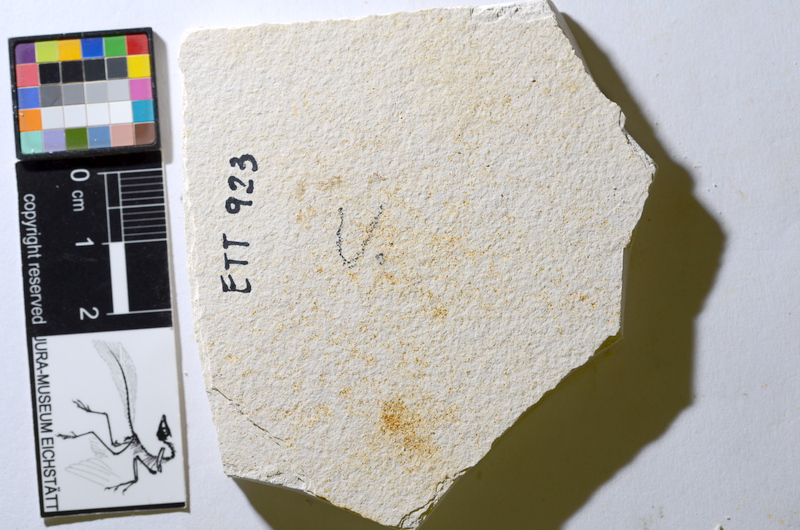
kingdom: Animalia
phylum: Chordata
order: Salmoniformes
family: Orthogonikleithridae
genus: Orthogonikleithrus
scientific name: Orthogonikleithrus hoelli
